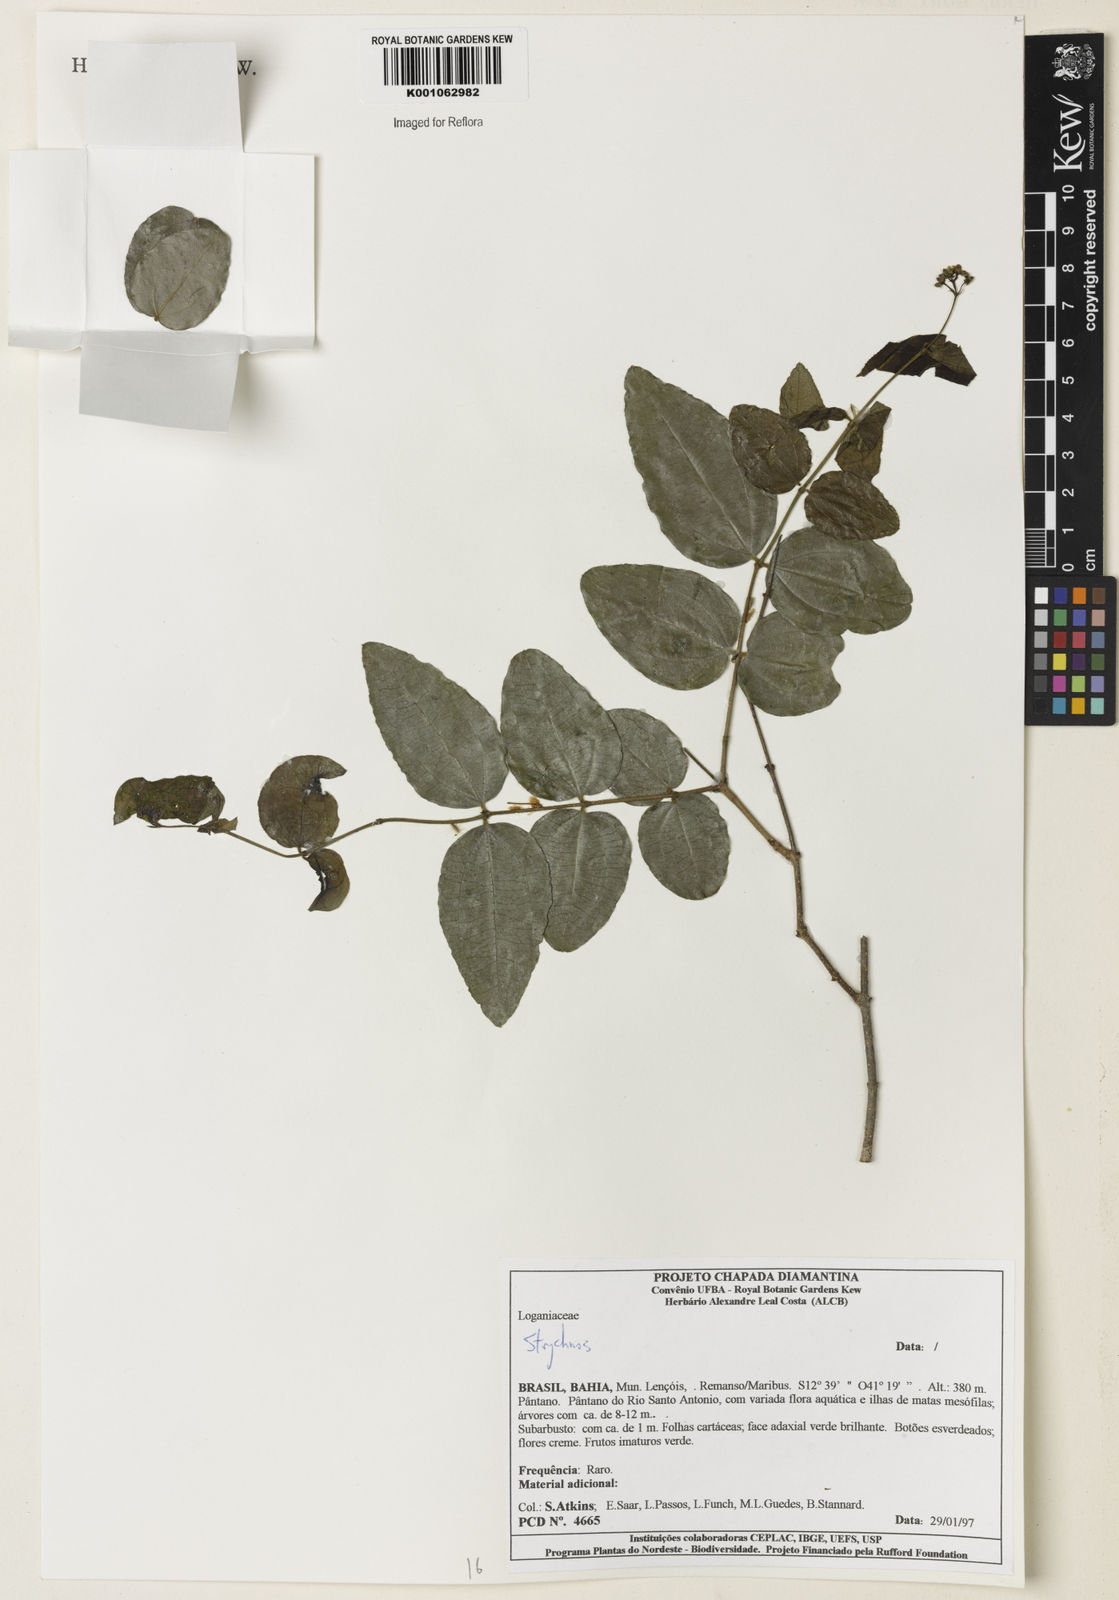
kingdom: Plantae
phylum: Tracheophyta
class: Magnoliopsida
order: Gentianales
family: Loganiaceae
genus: Strychnos
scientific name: Strychnos
